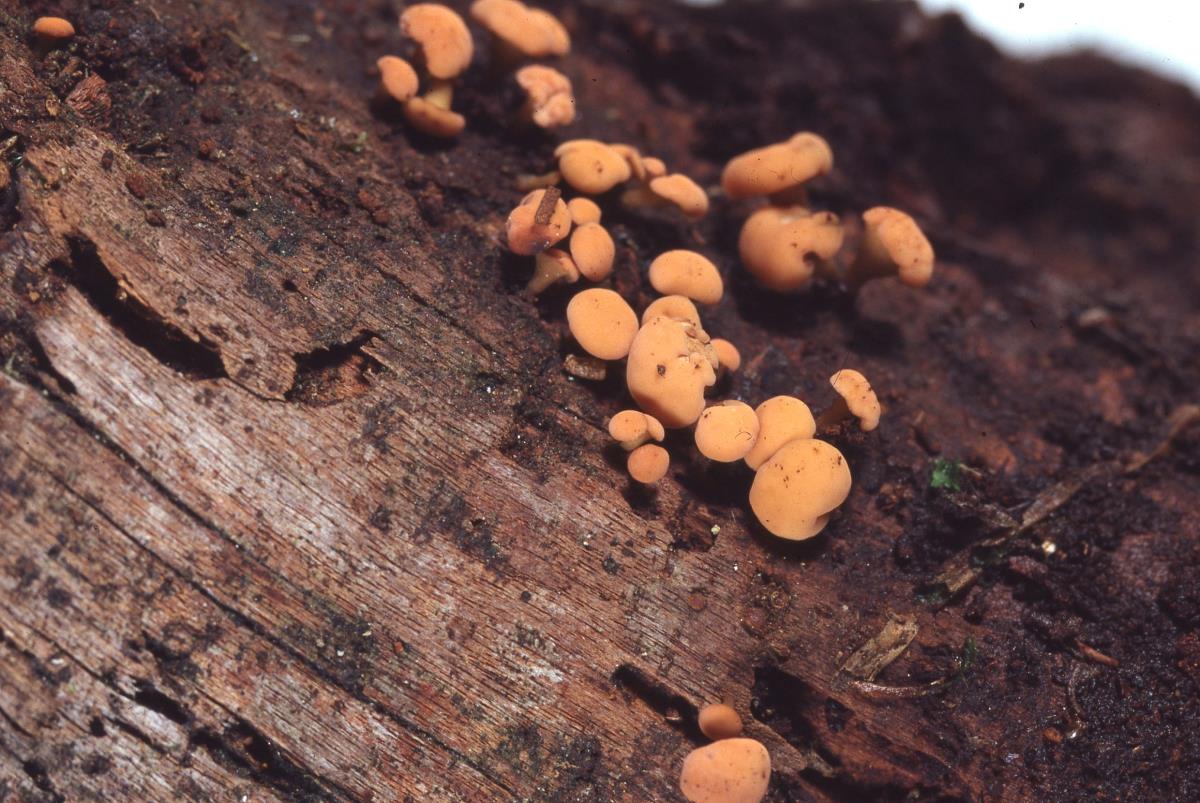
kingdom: Fungi
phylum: Ascomycota
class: Leotiomycetes
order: Helotiales
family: Lachnaceae
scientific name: Lachnaceae
